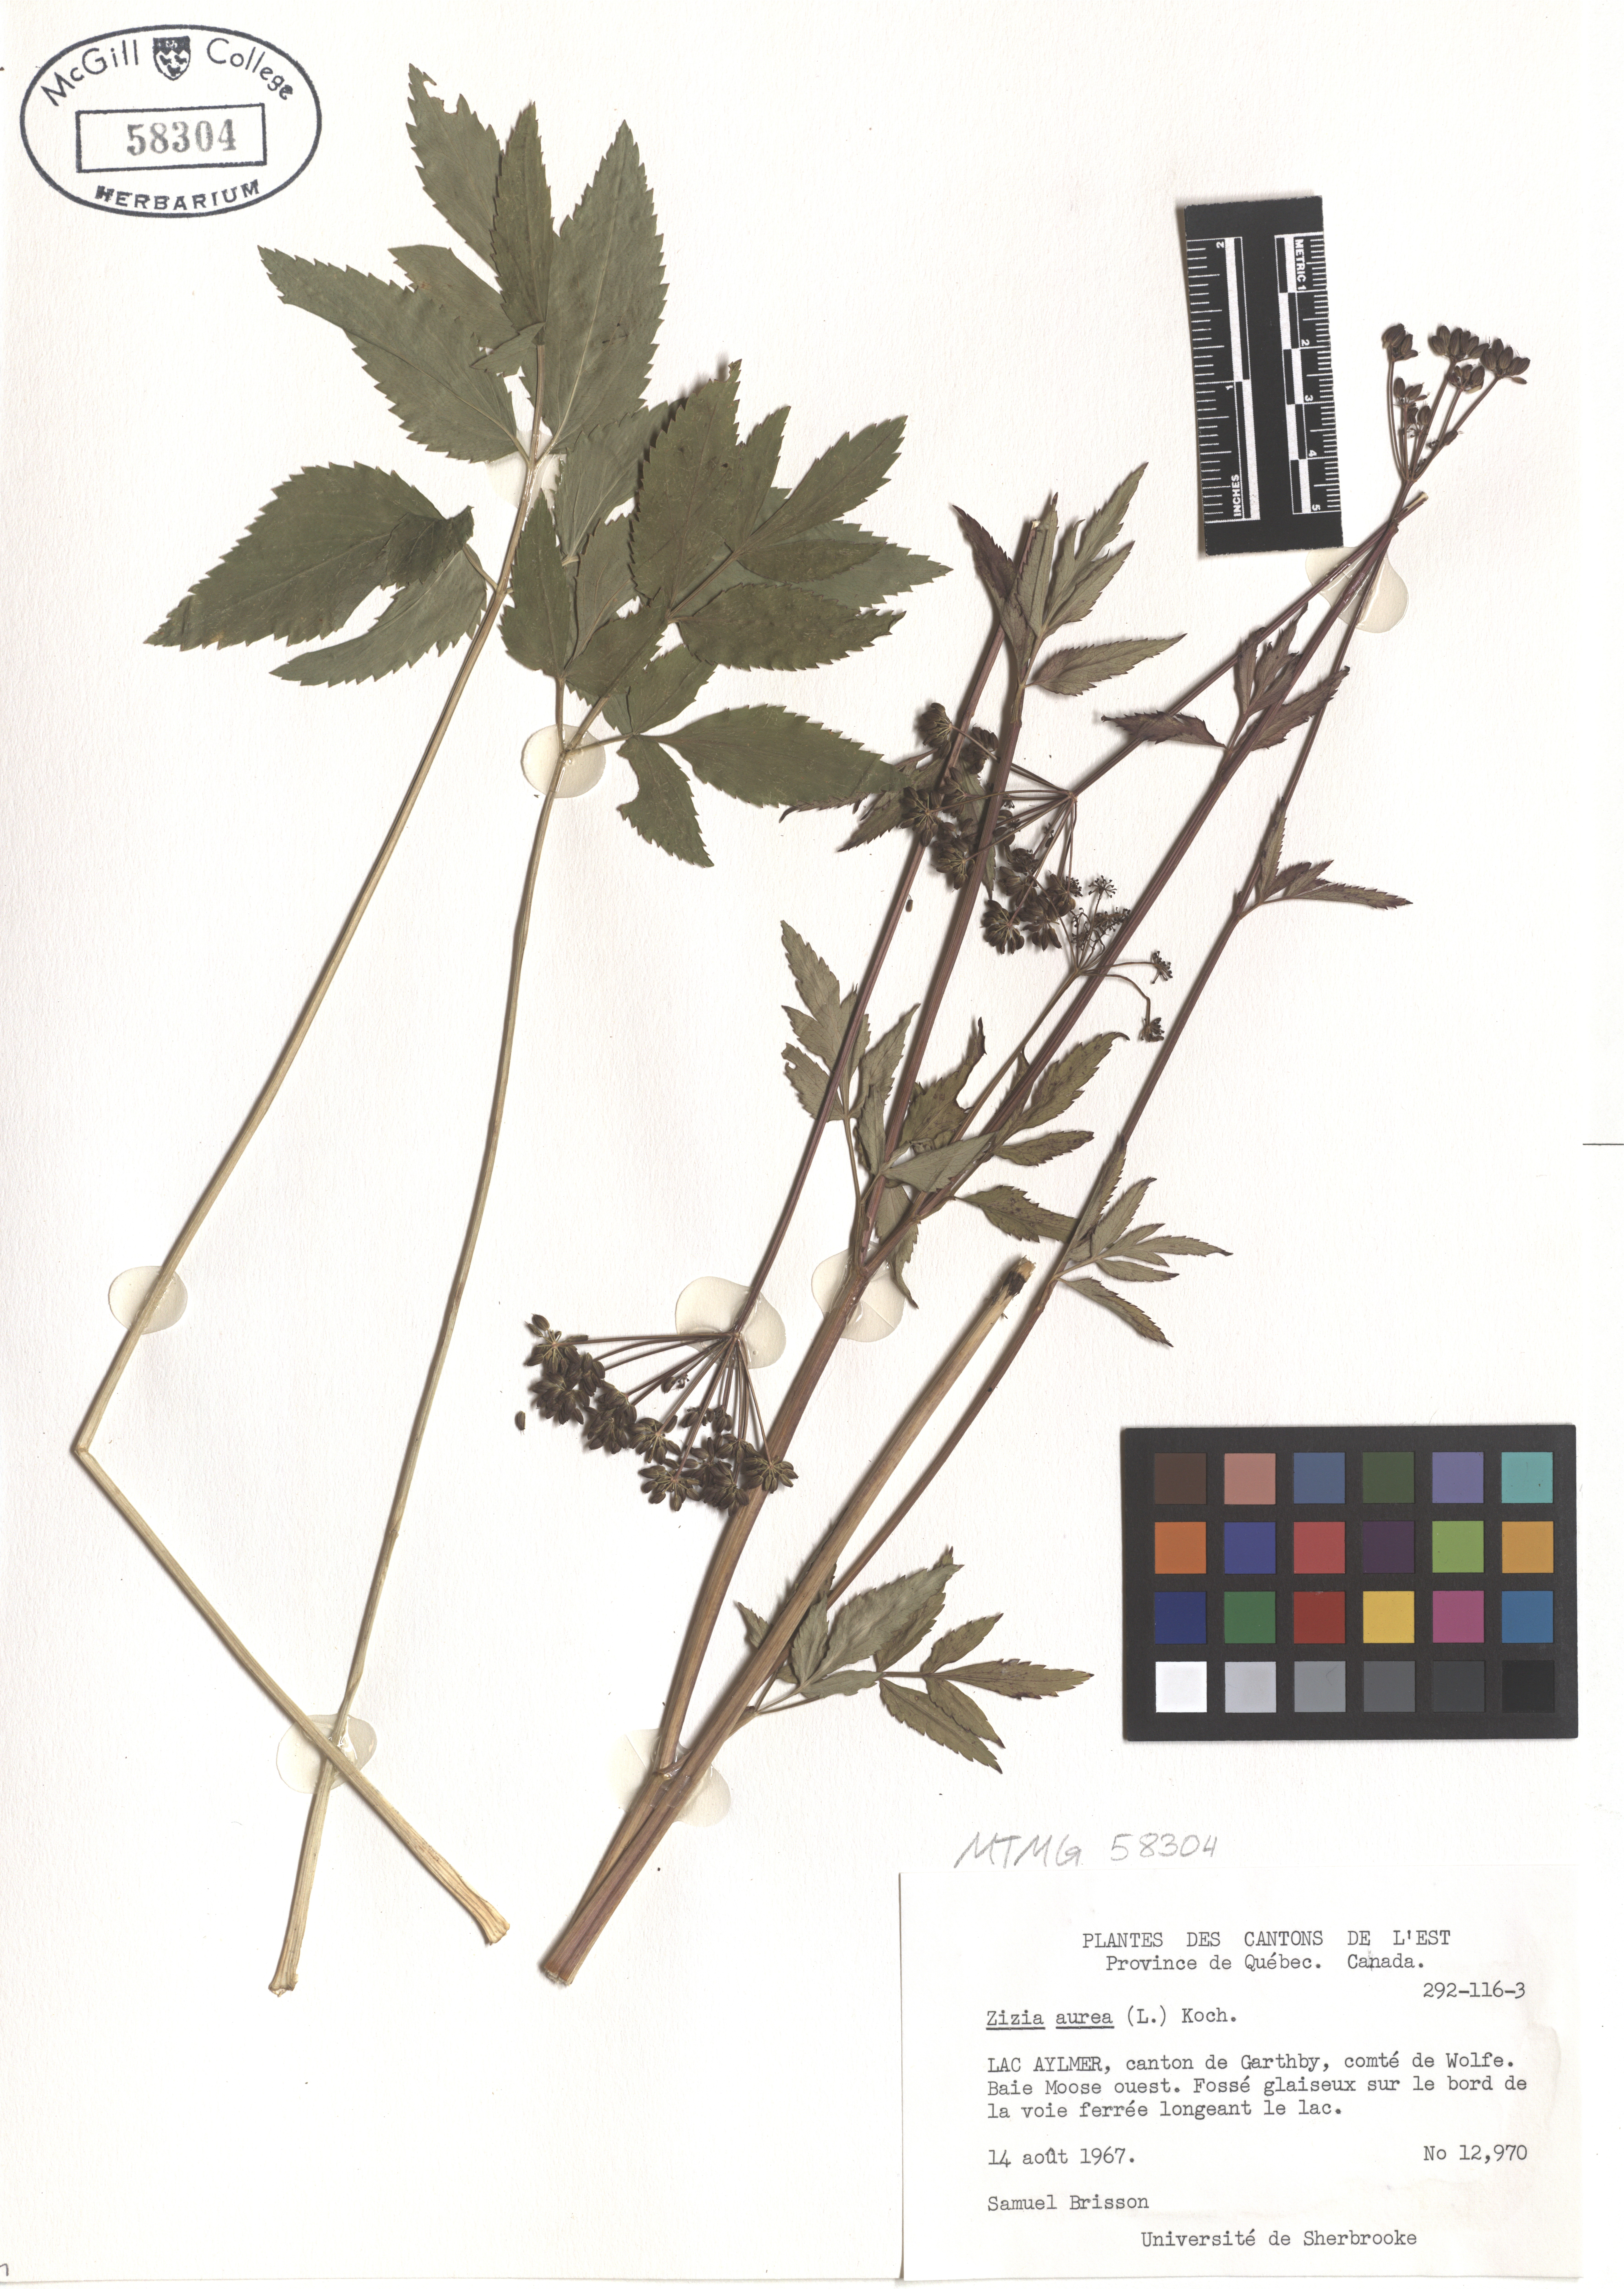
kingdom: Plantae
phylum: Tracheophyta
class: Magnoliopsida
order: Apiales
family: Apiaceae
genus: Zizia
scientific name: Zizia aurea
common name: Golden alexanders
